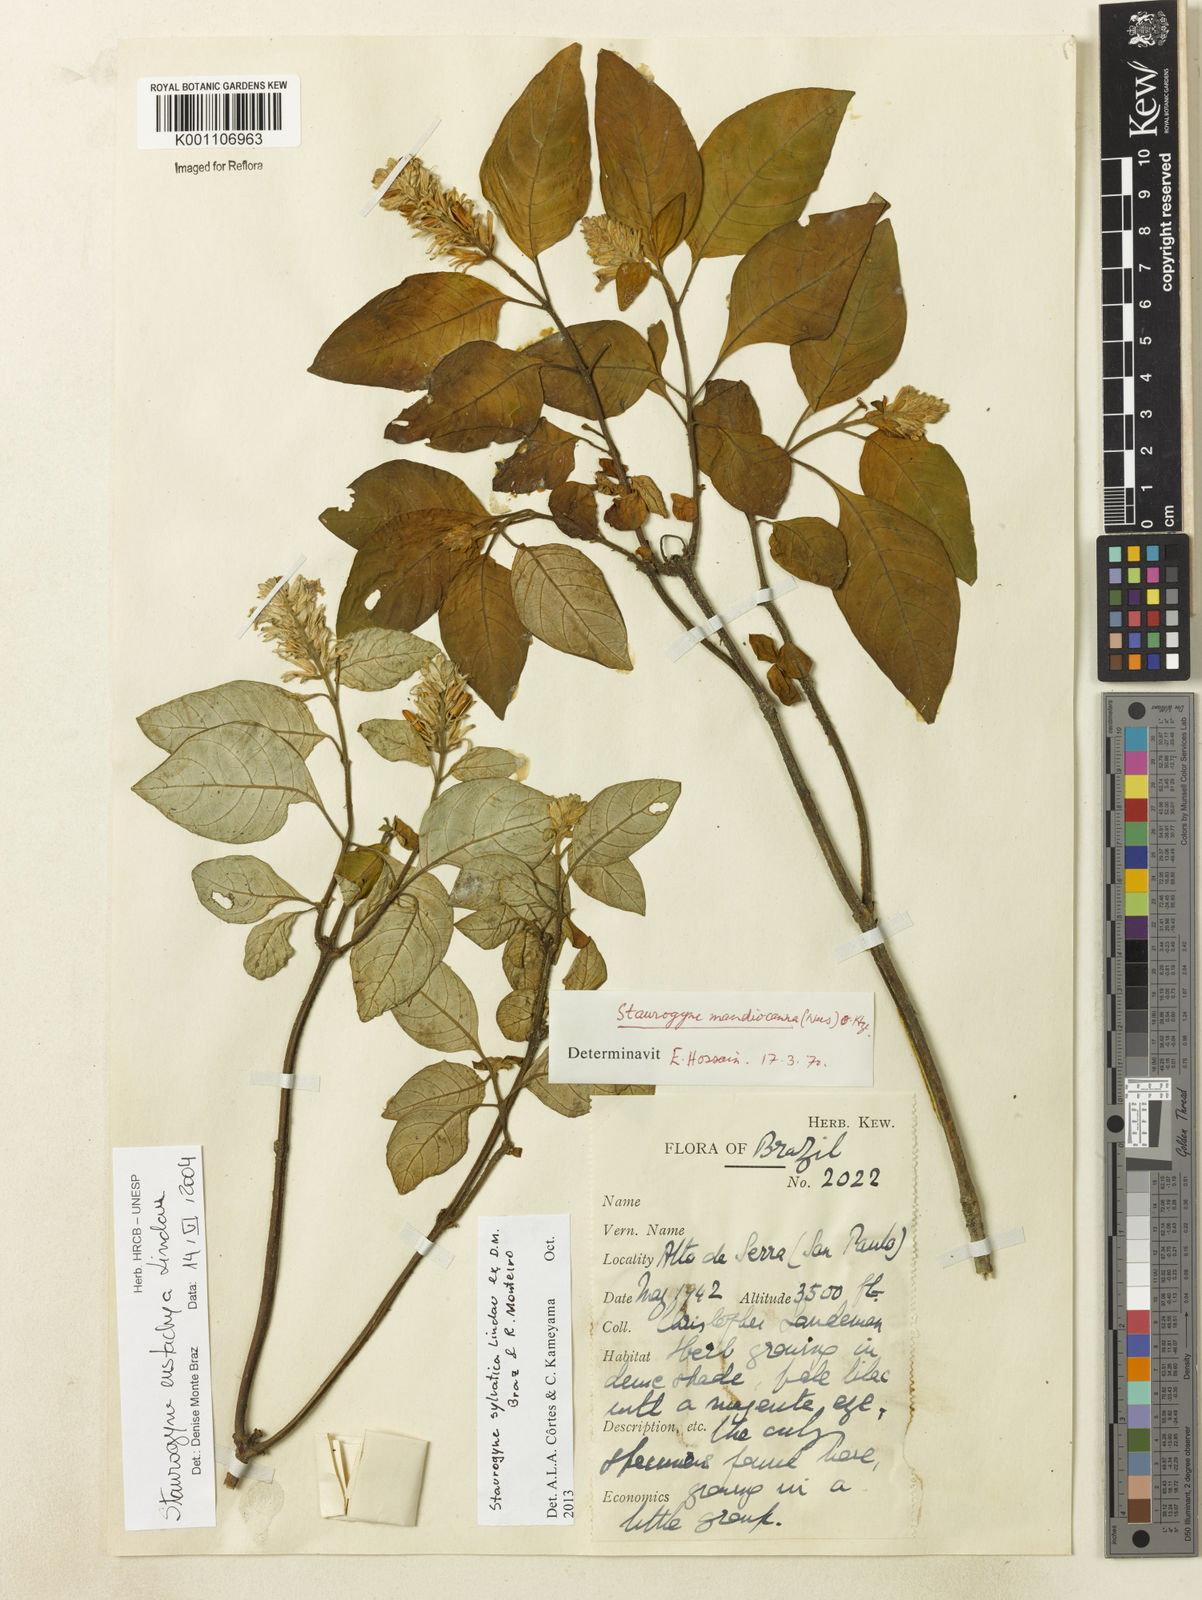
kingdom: Plantae
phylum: Tracheophyta
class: Magnoliopsida
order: Lamiales
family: Acanthaceae
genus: Staurogyne
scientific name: Staurogyne sylvatica
